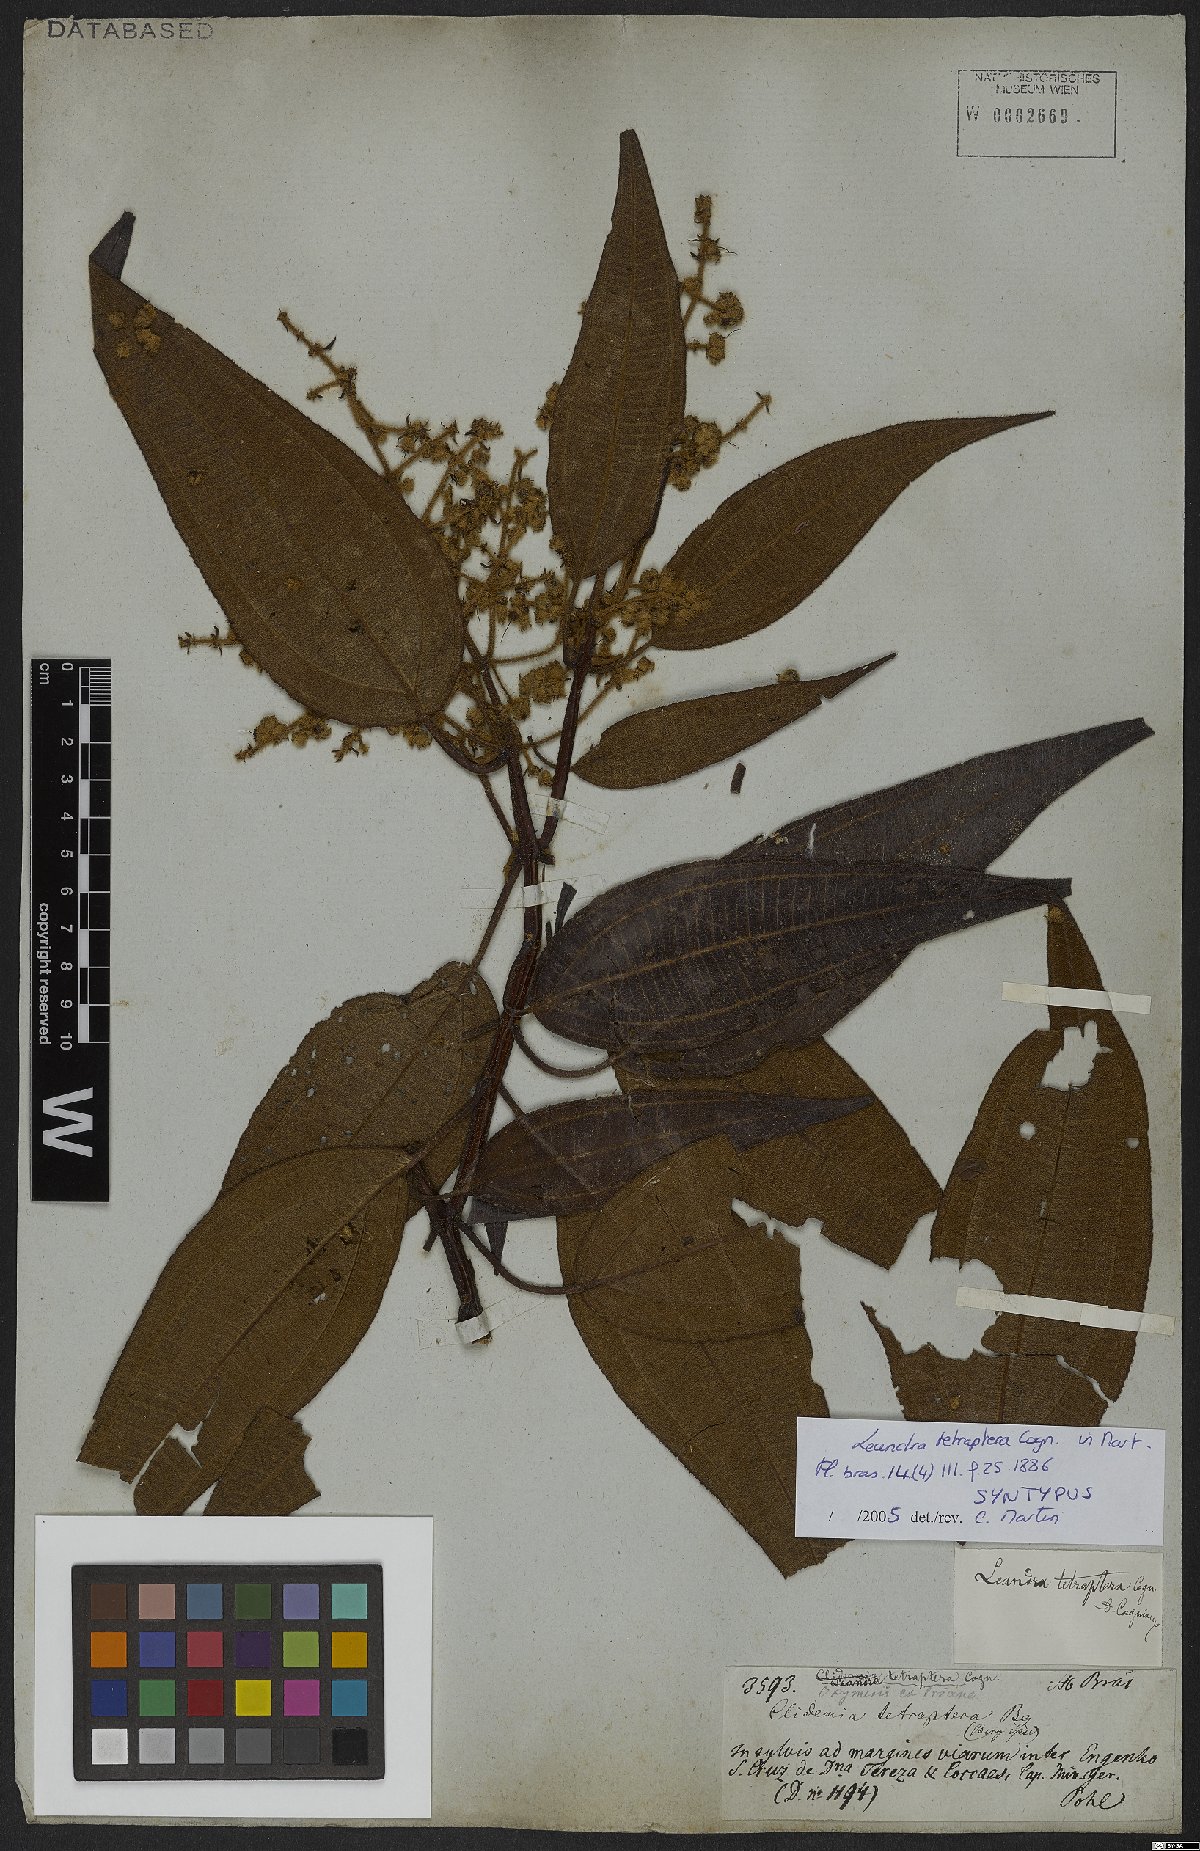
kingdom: Plantae
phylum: Tracheophyta
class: Magnoliopsida
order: Myrtales
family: Melastomataceae
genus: Miconia
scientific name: Miconia leatetraptera
